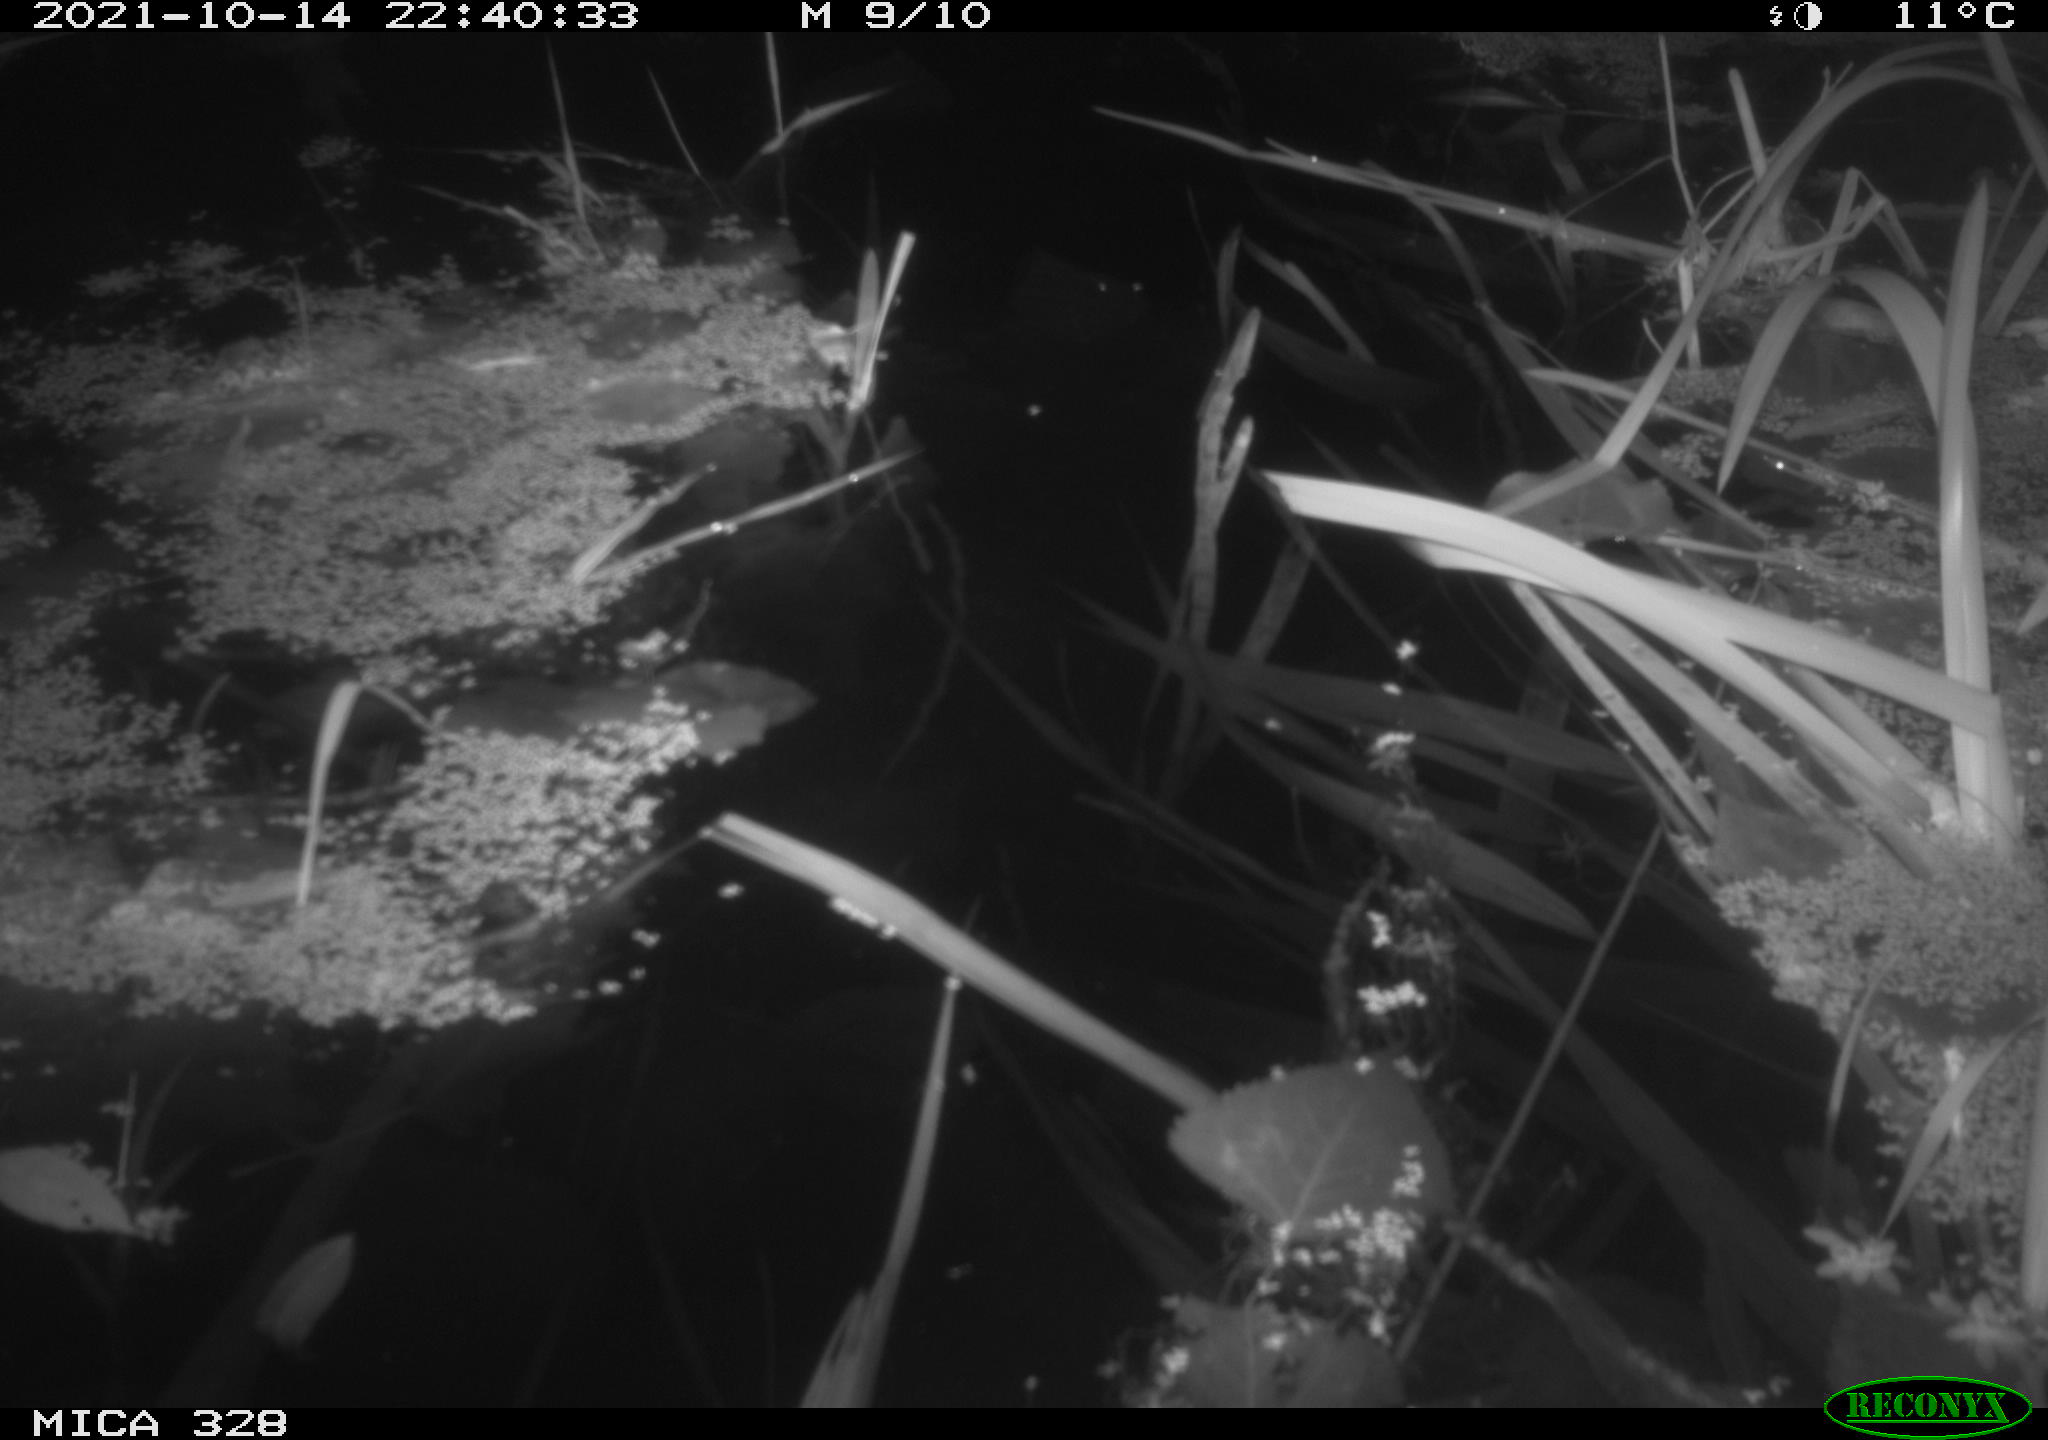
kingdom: Animalia
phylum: Chordata
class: Mammalia
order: Rodentia
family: Cricetidae
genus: Ondatra
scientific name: Ondatra zibethicus
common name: Muskrat
